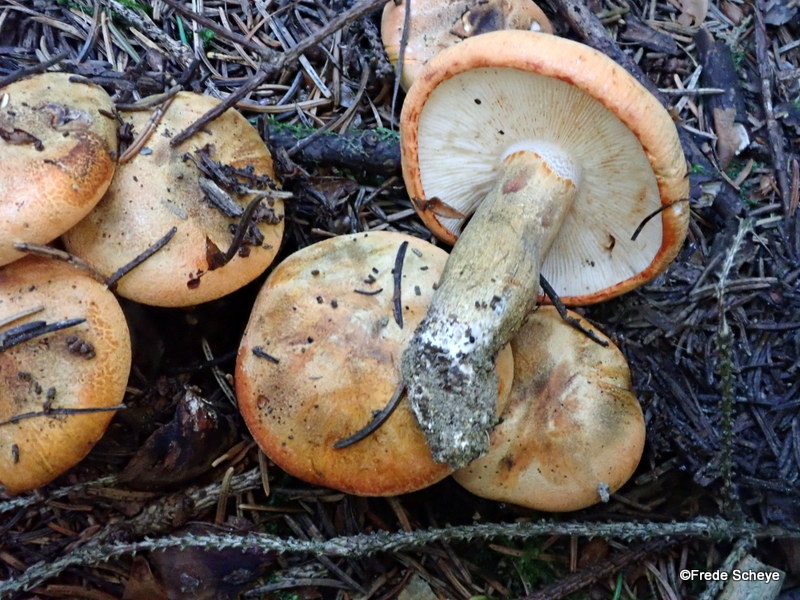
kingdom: Fungi
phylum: Basidiomycota
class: Agaricomycetes
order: Agaricales
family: Tricholomataceae
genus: Tricholoma
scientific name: Tricholoma aurantium
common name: orangegul ridderhat
